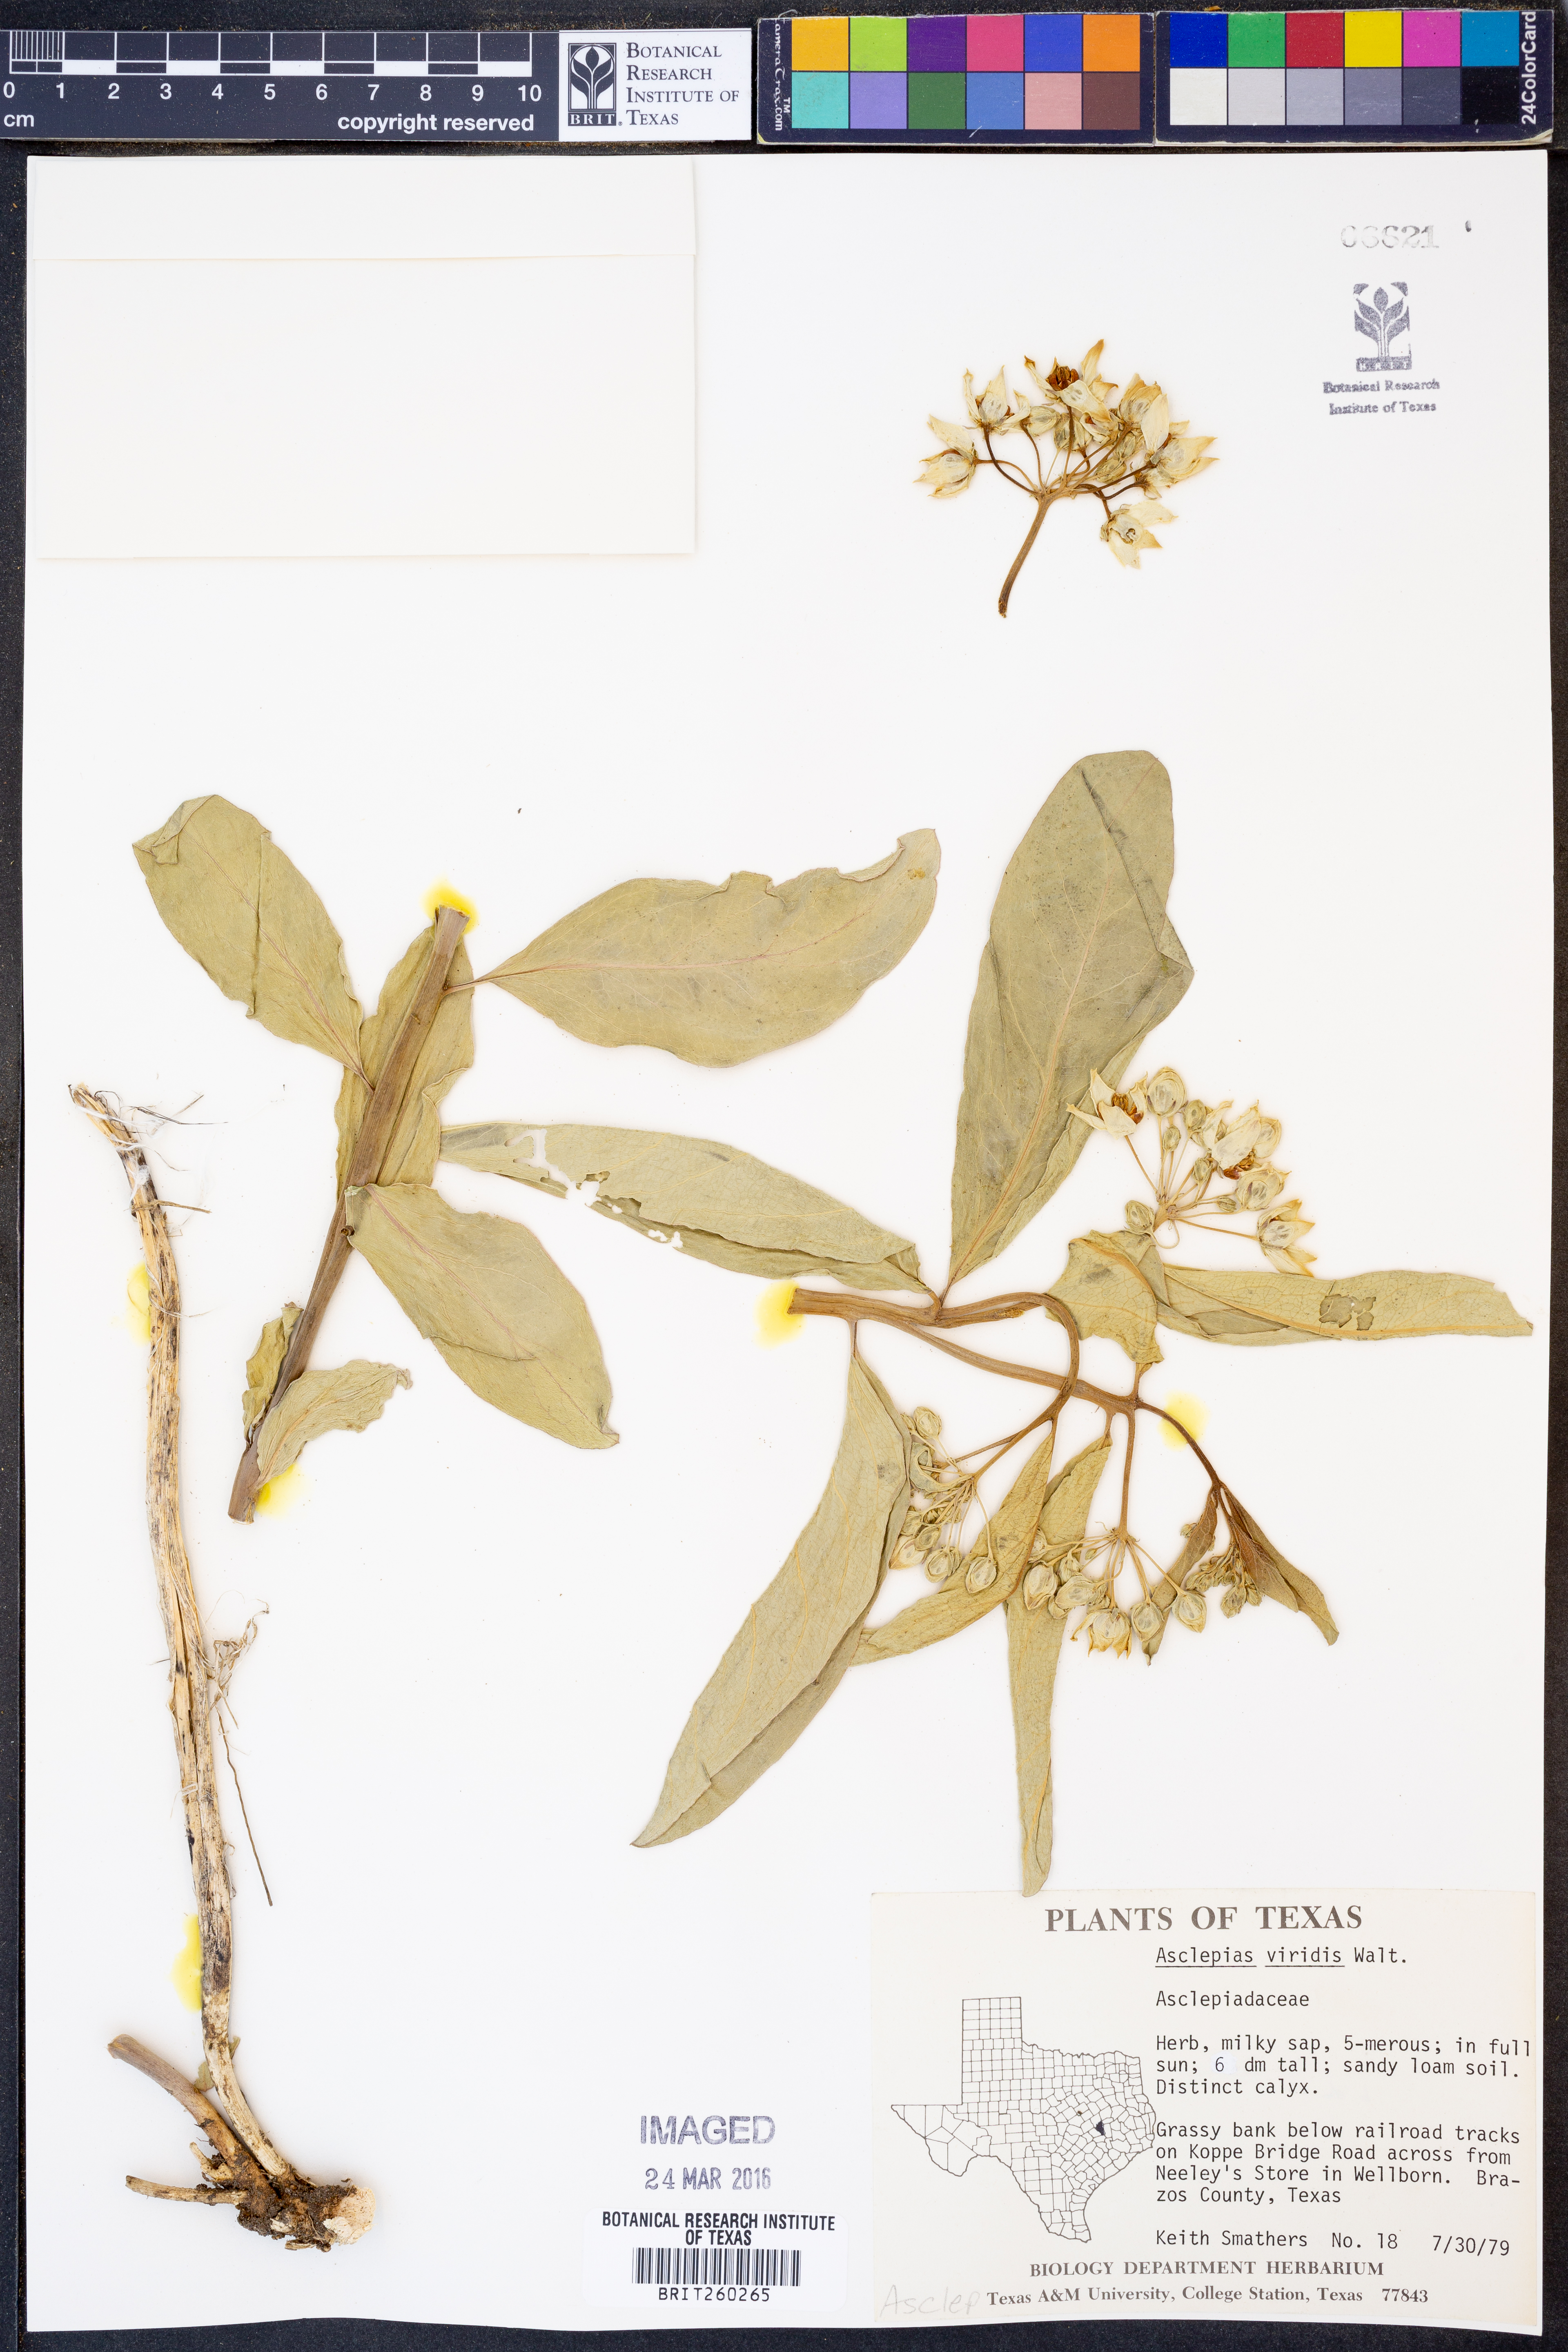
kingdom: Plantae
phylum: Tracheophyta
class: Magnoliopsida
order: Gentianales
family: Apocynaceae
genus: Asclepias
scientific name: Asclepias viridis
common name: Antelope-horns
